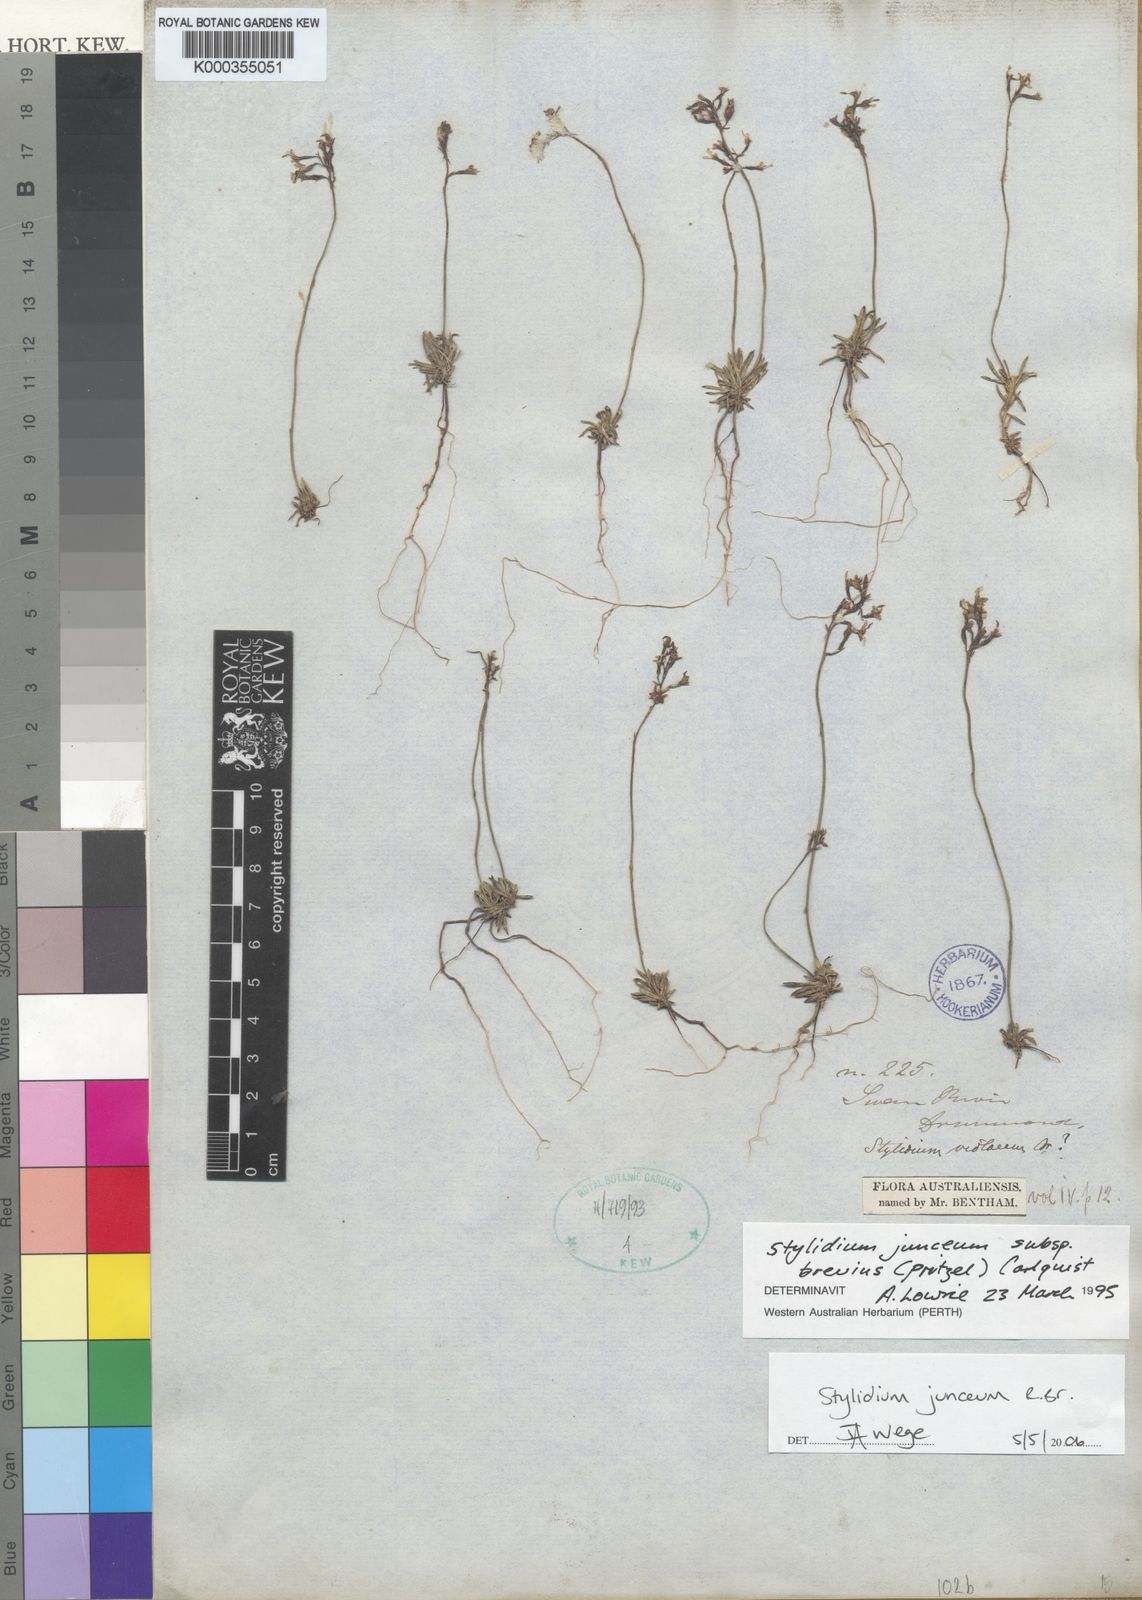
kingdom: Plantae
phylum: Tracheophyta
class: Magnoliopsida
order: Asterales
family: Stylidiaceae
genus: Stylidium
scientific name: Stylidium junceum
